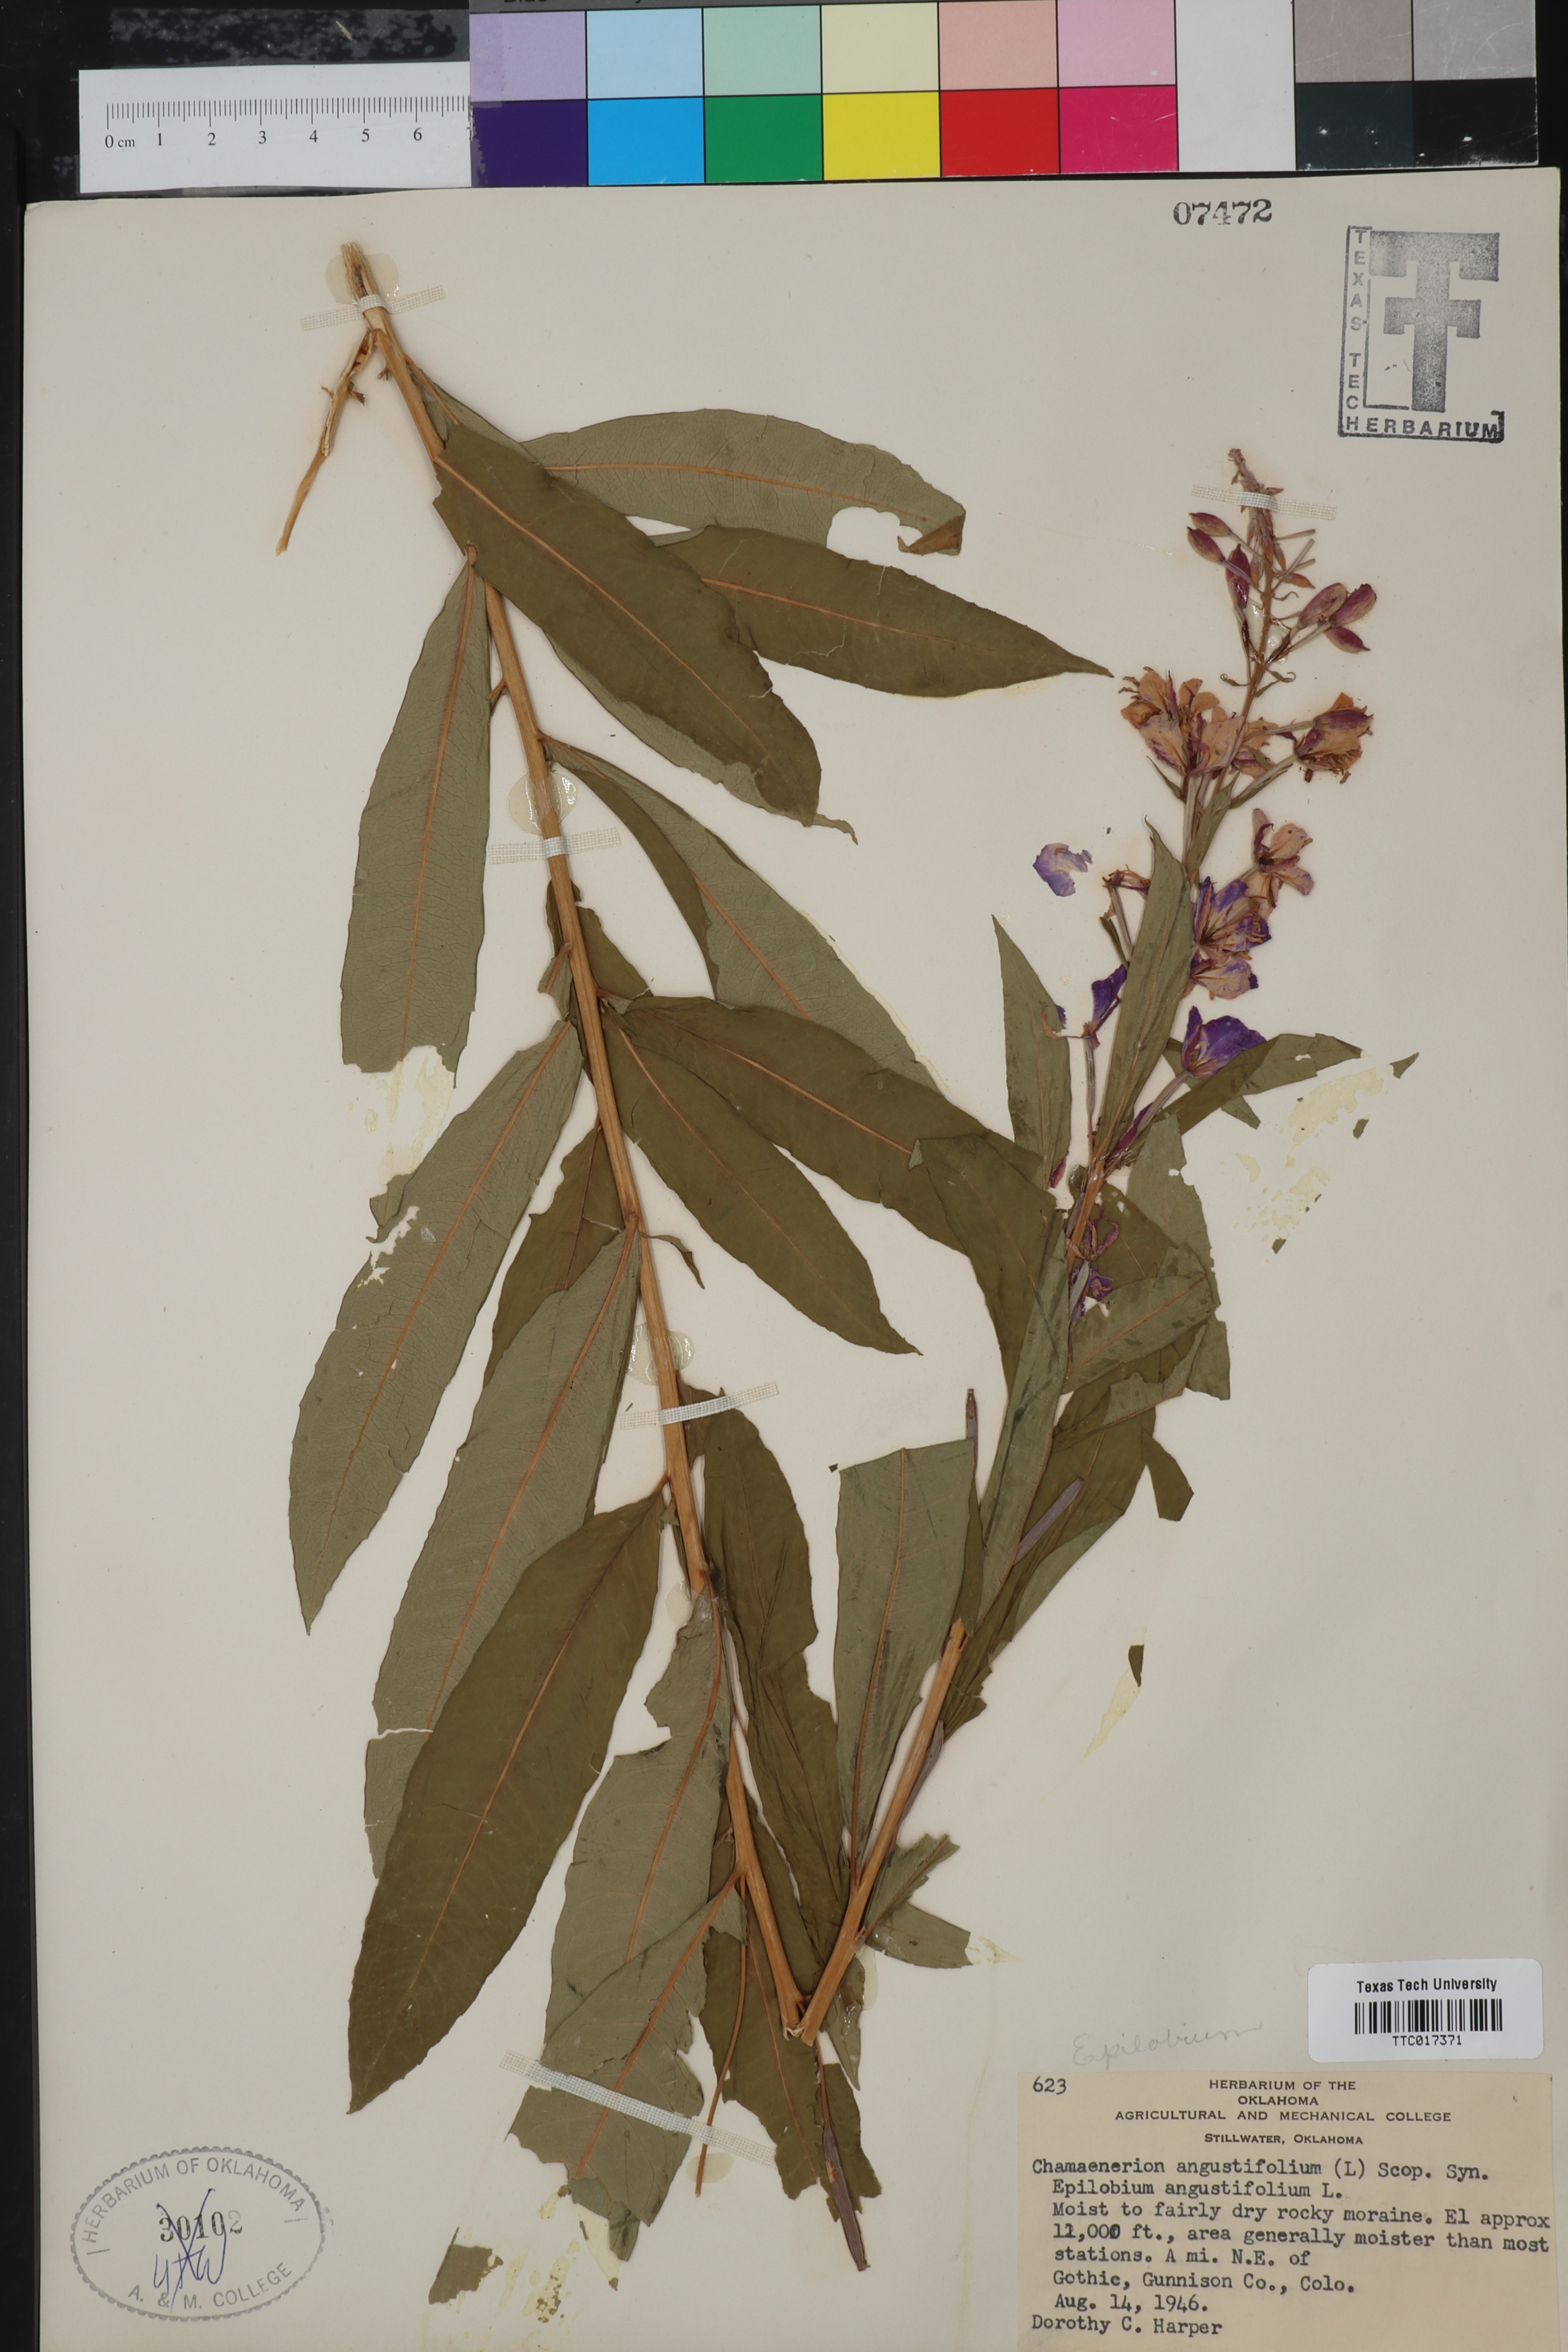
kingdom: Plantae
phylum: Tracheophyta
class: Magnoliopsida
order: Myrtales
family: Onagraceae
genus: Chamaenerion
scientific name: Chamaenerion dodonaei
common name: Rosemary-leaved willowherb
